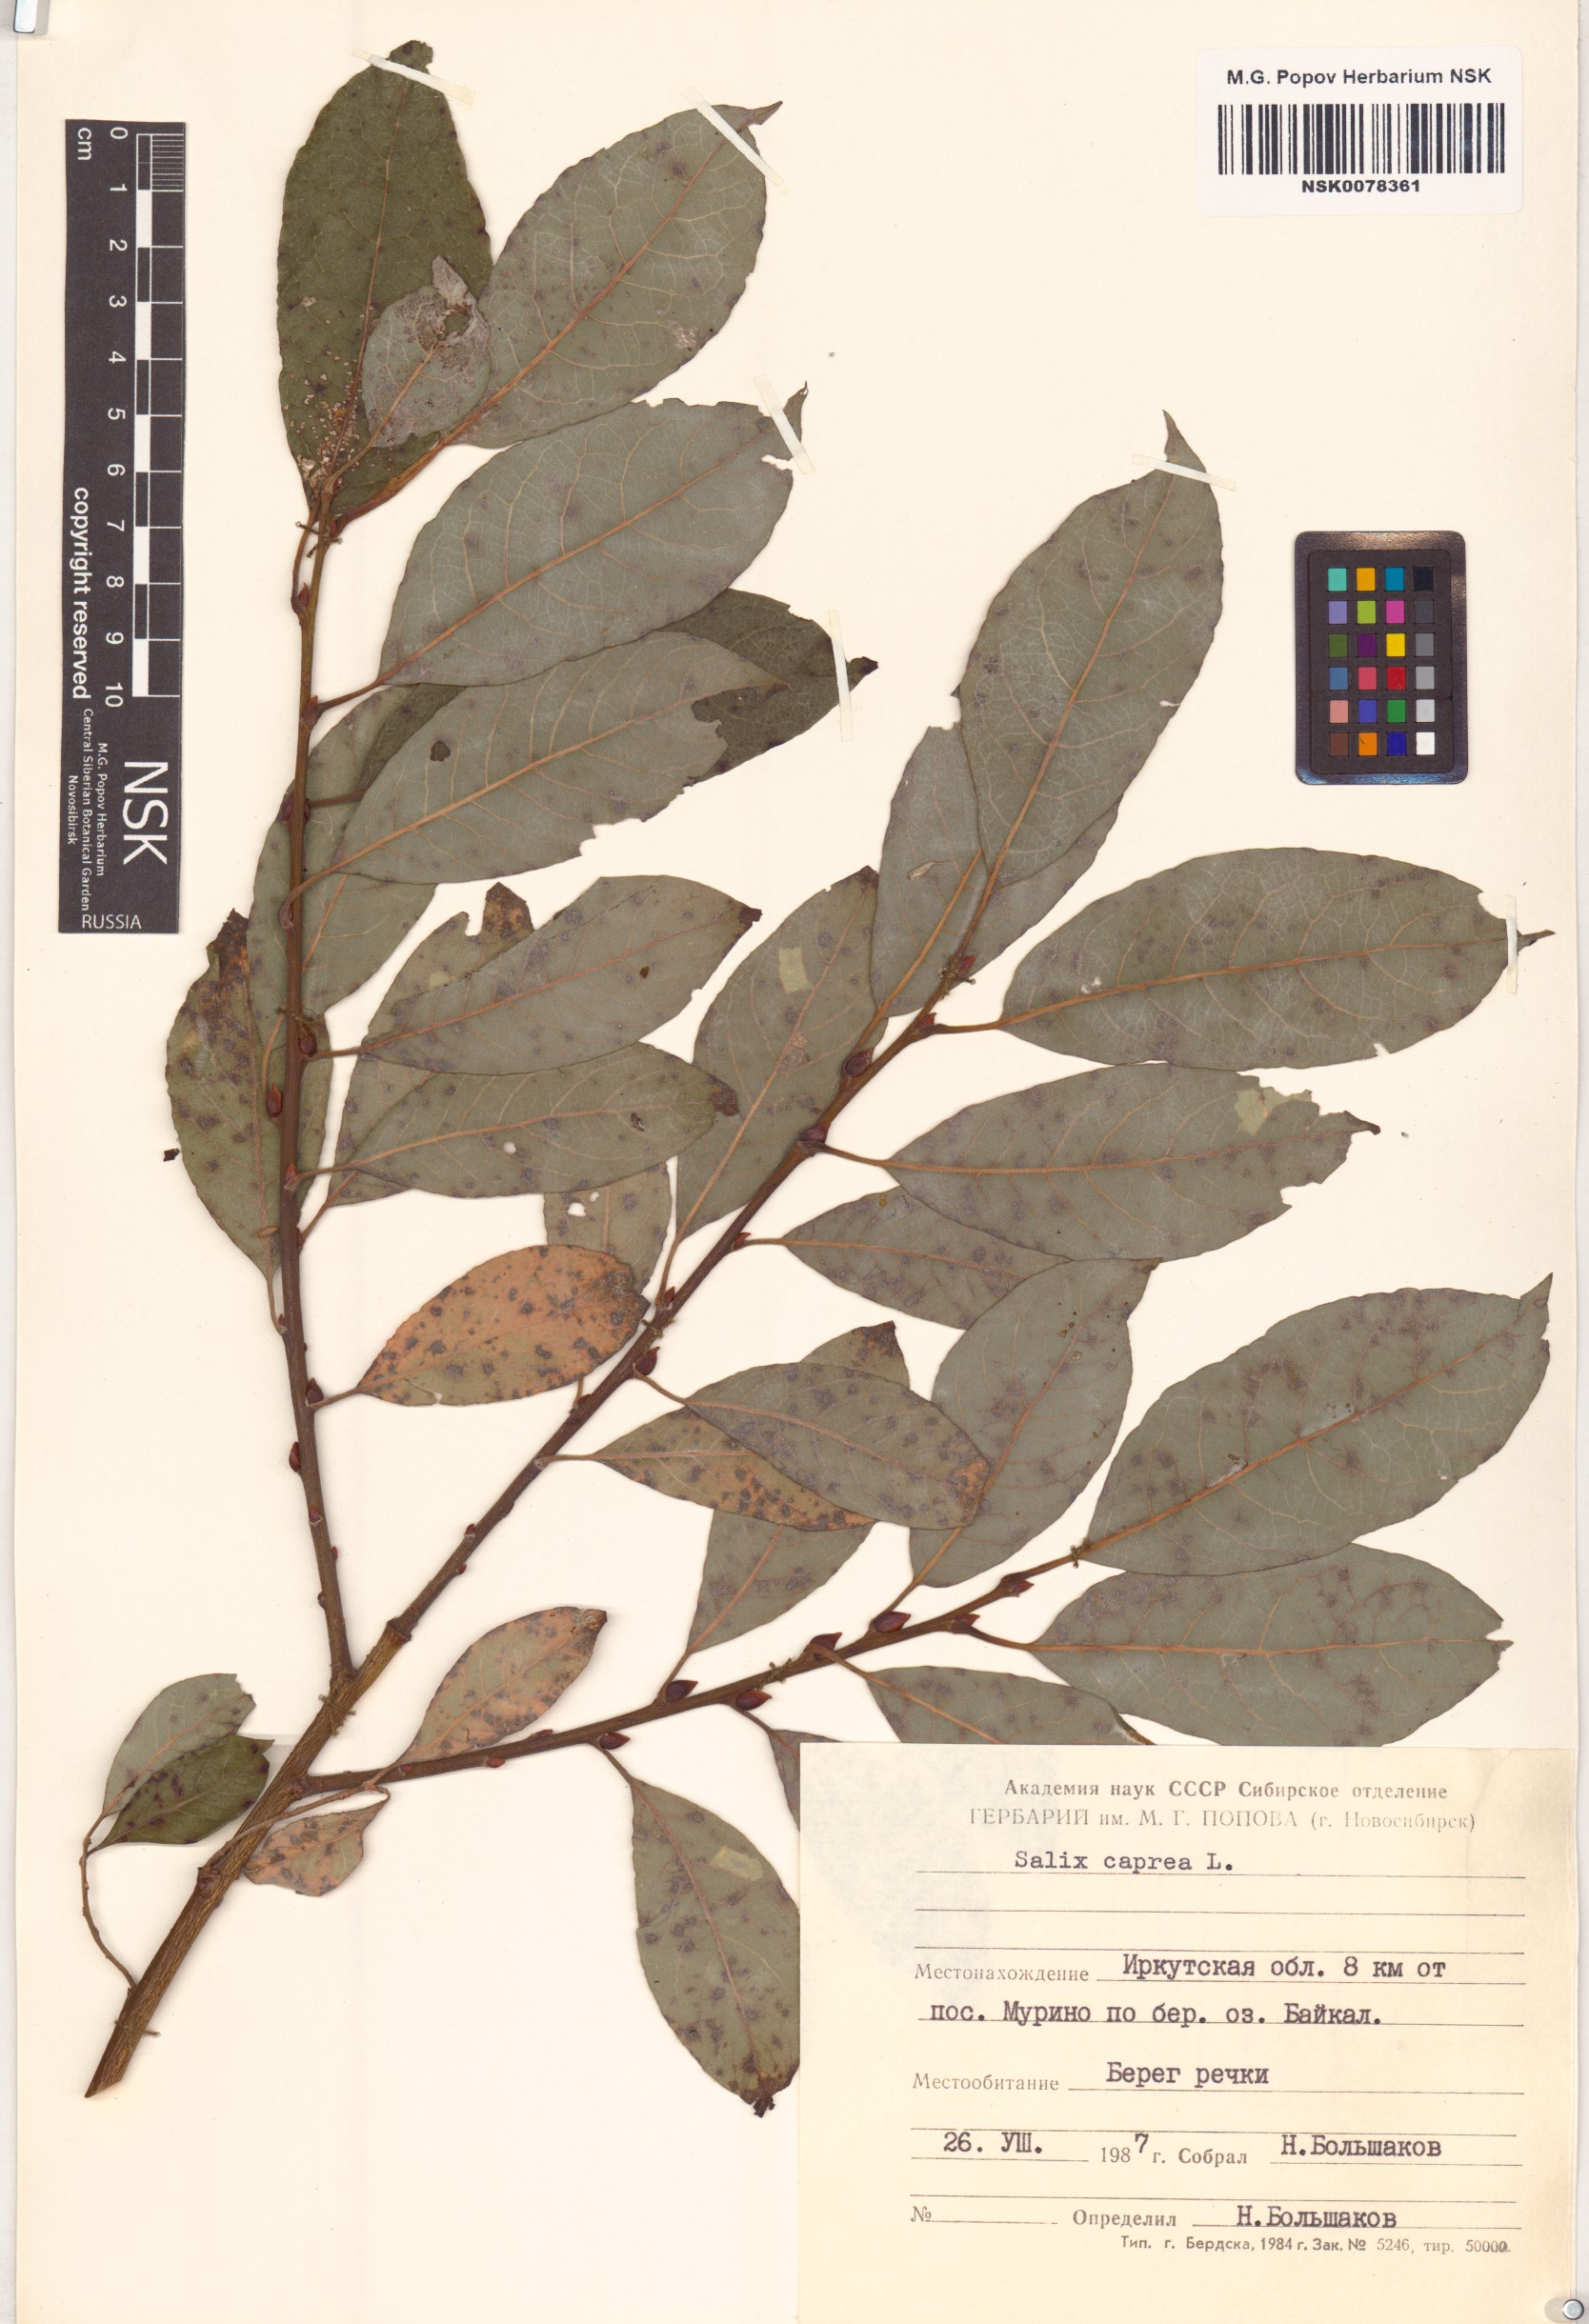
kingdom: Plantae
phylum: Tracheophyta
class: Magnoliopsida
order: Malpighiales
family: Salicaceae
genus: Salix
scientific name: Salix caprea
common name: Goat willow
